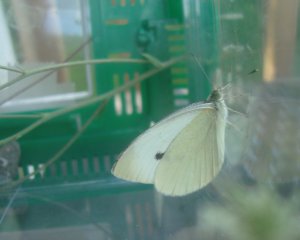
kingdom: Animalia
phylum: Arthropoda
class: Insecta
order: Lepidoptera
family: Pieridae
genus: Pieris
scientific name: Pieris rapae
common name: Cabbage White
